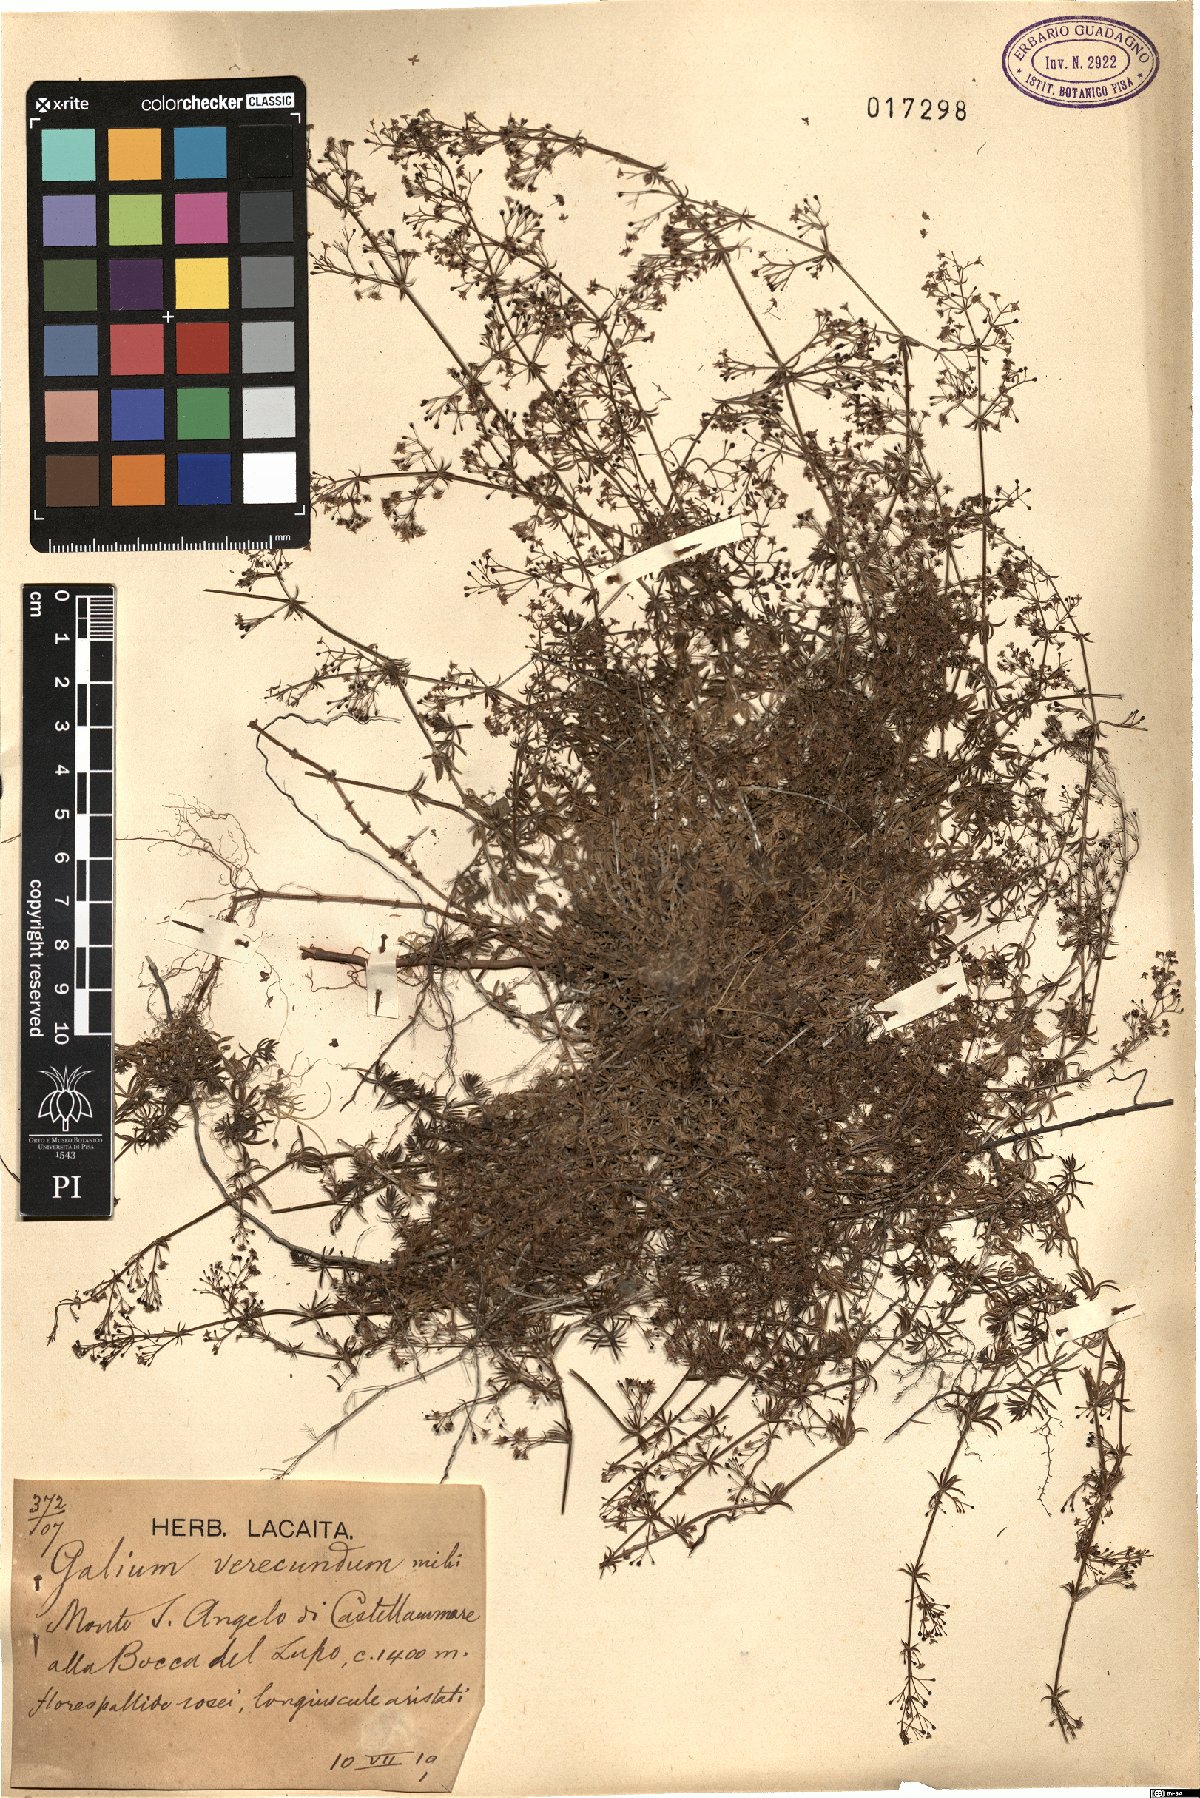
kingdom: Plantae
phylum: Tracheophyta
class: Magnoliopsida
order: Gentianales
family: Rubiaceae
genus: Galium
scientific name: Galium
